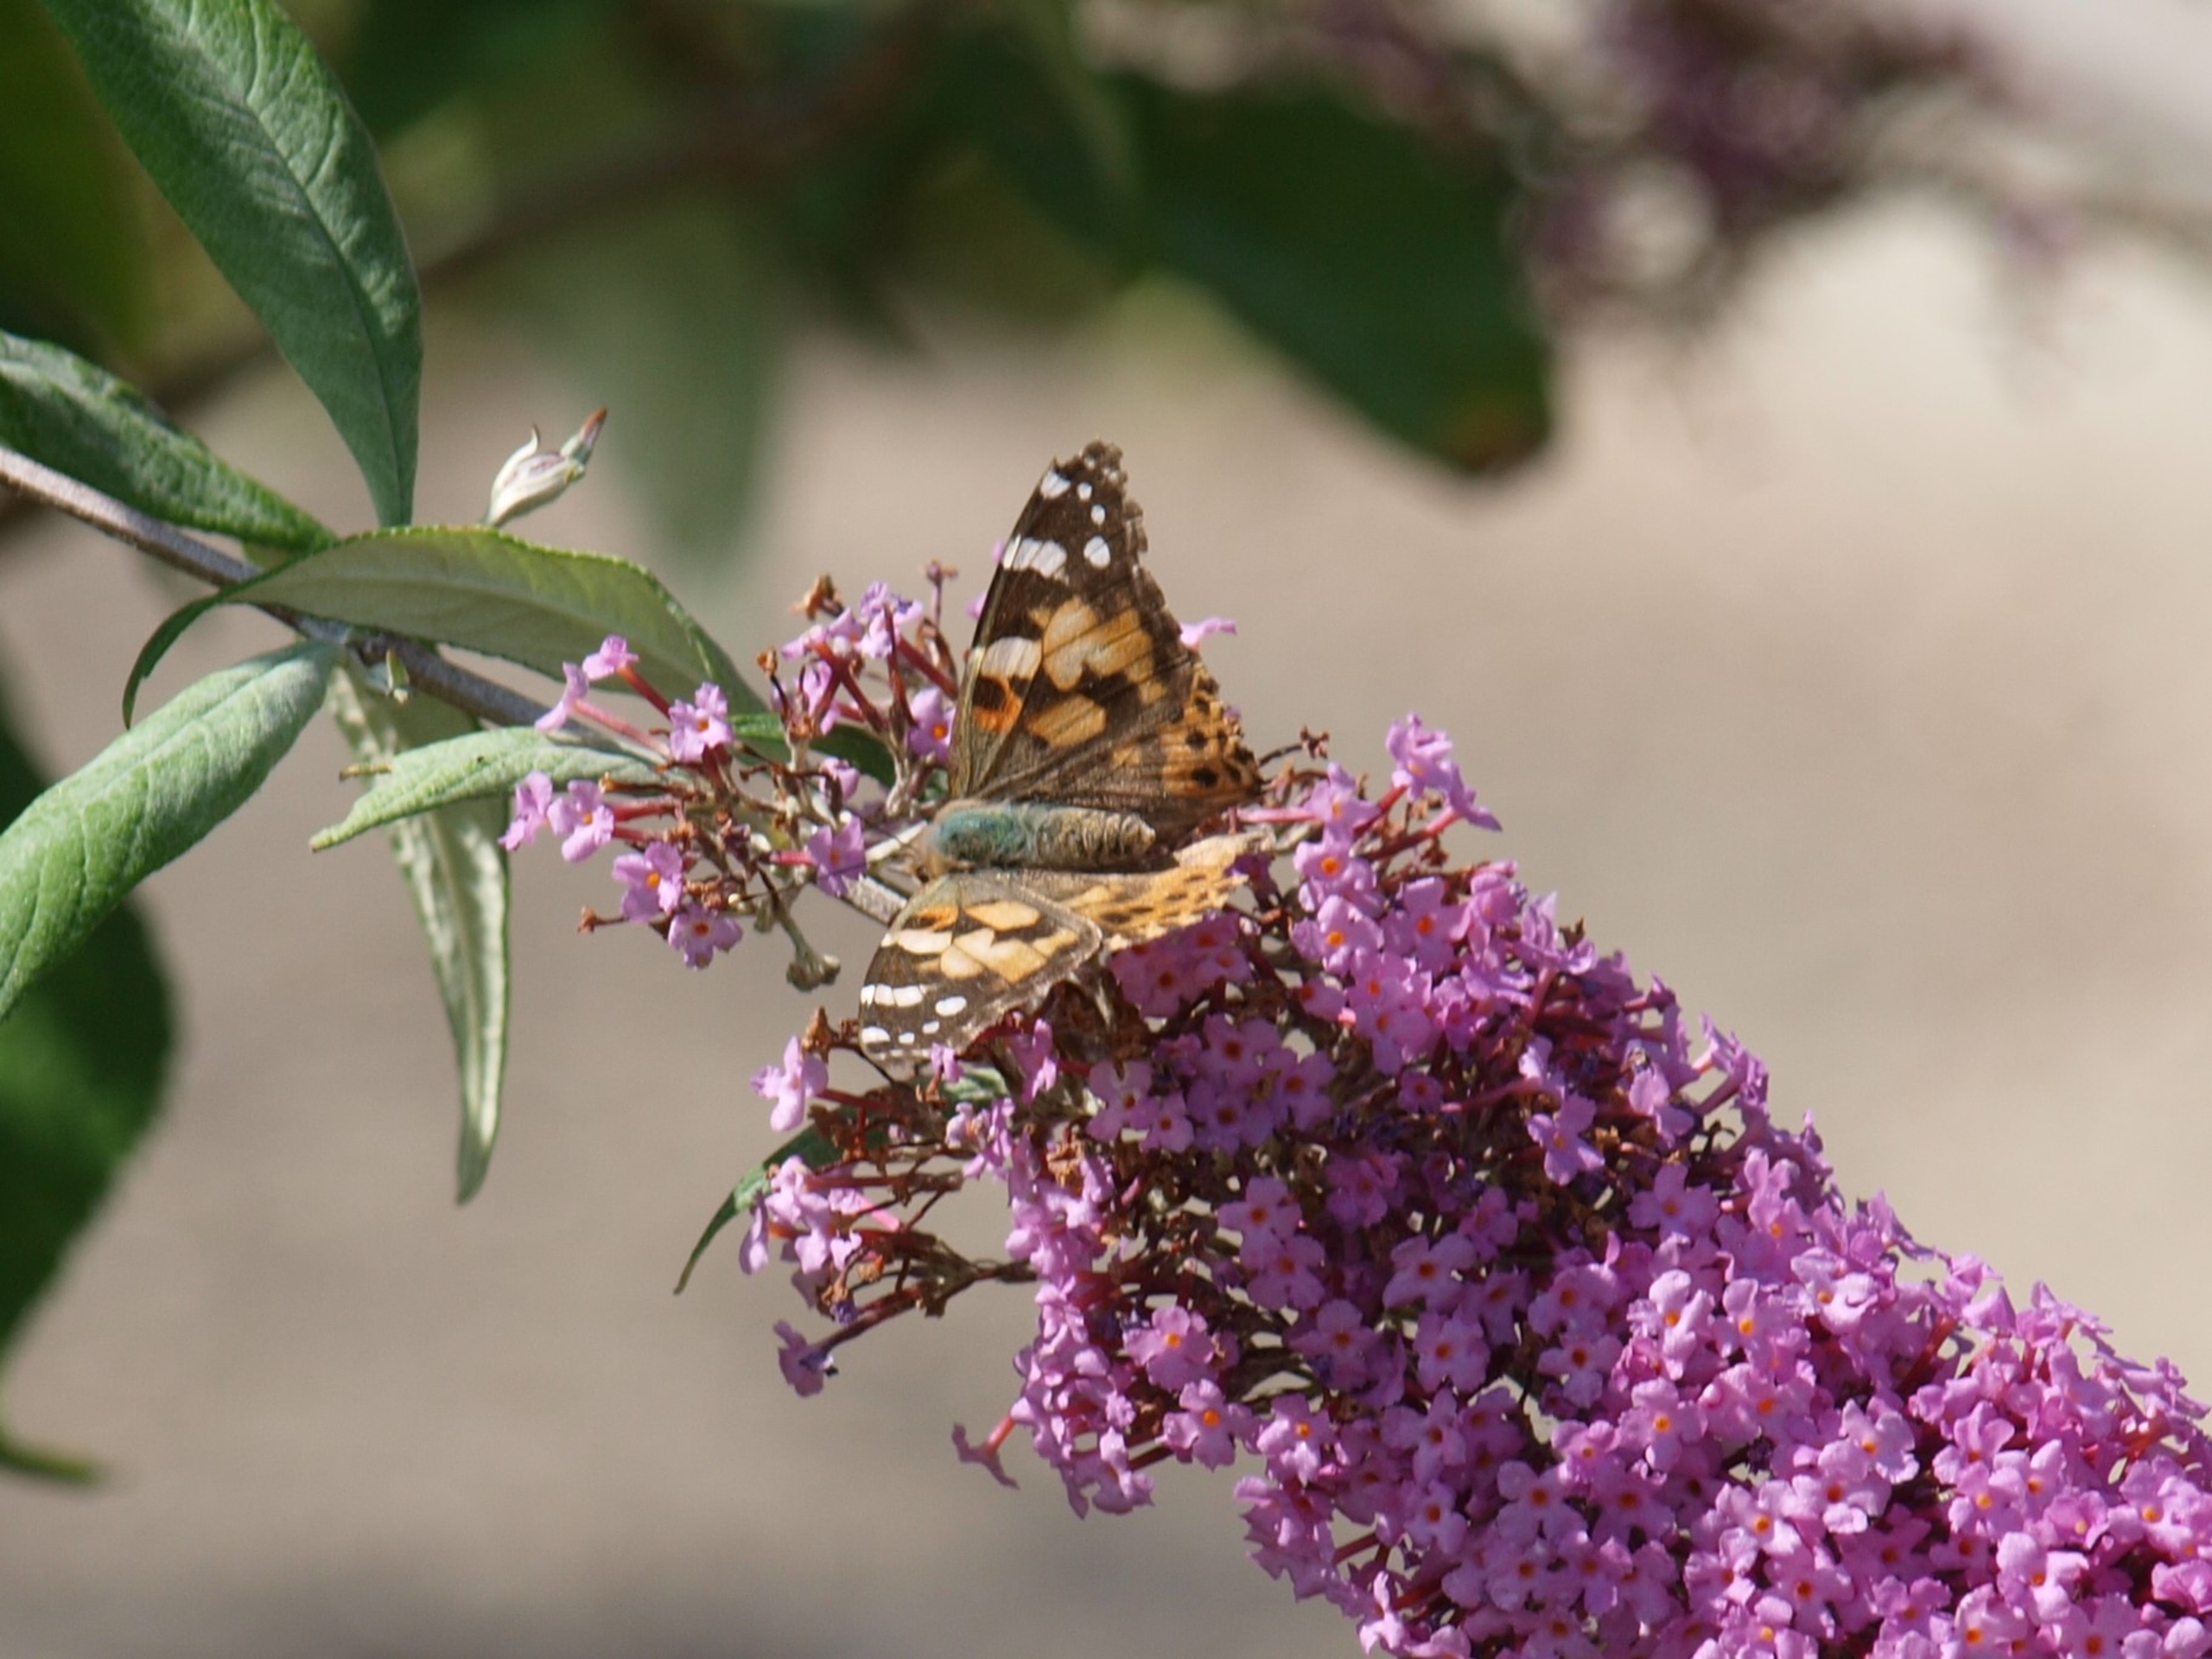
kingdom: Animalia
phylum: Arthropoda
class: Insecta
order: Lepidoptera
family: Nymphalidae
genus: Vanessa
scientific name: Vanessa cardui
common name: Tidselsommerfugl
